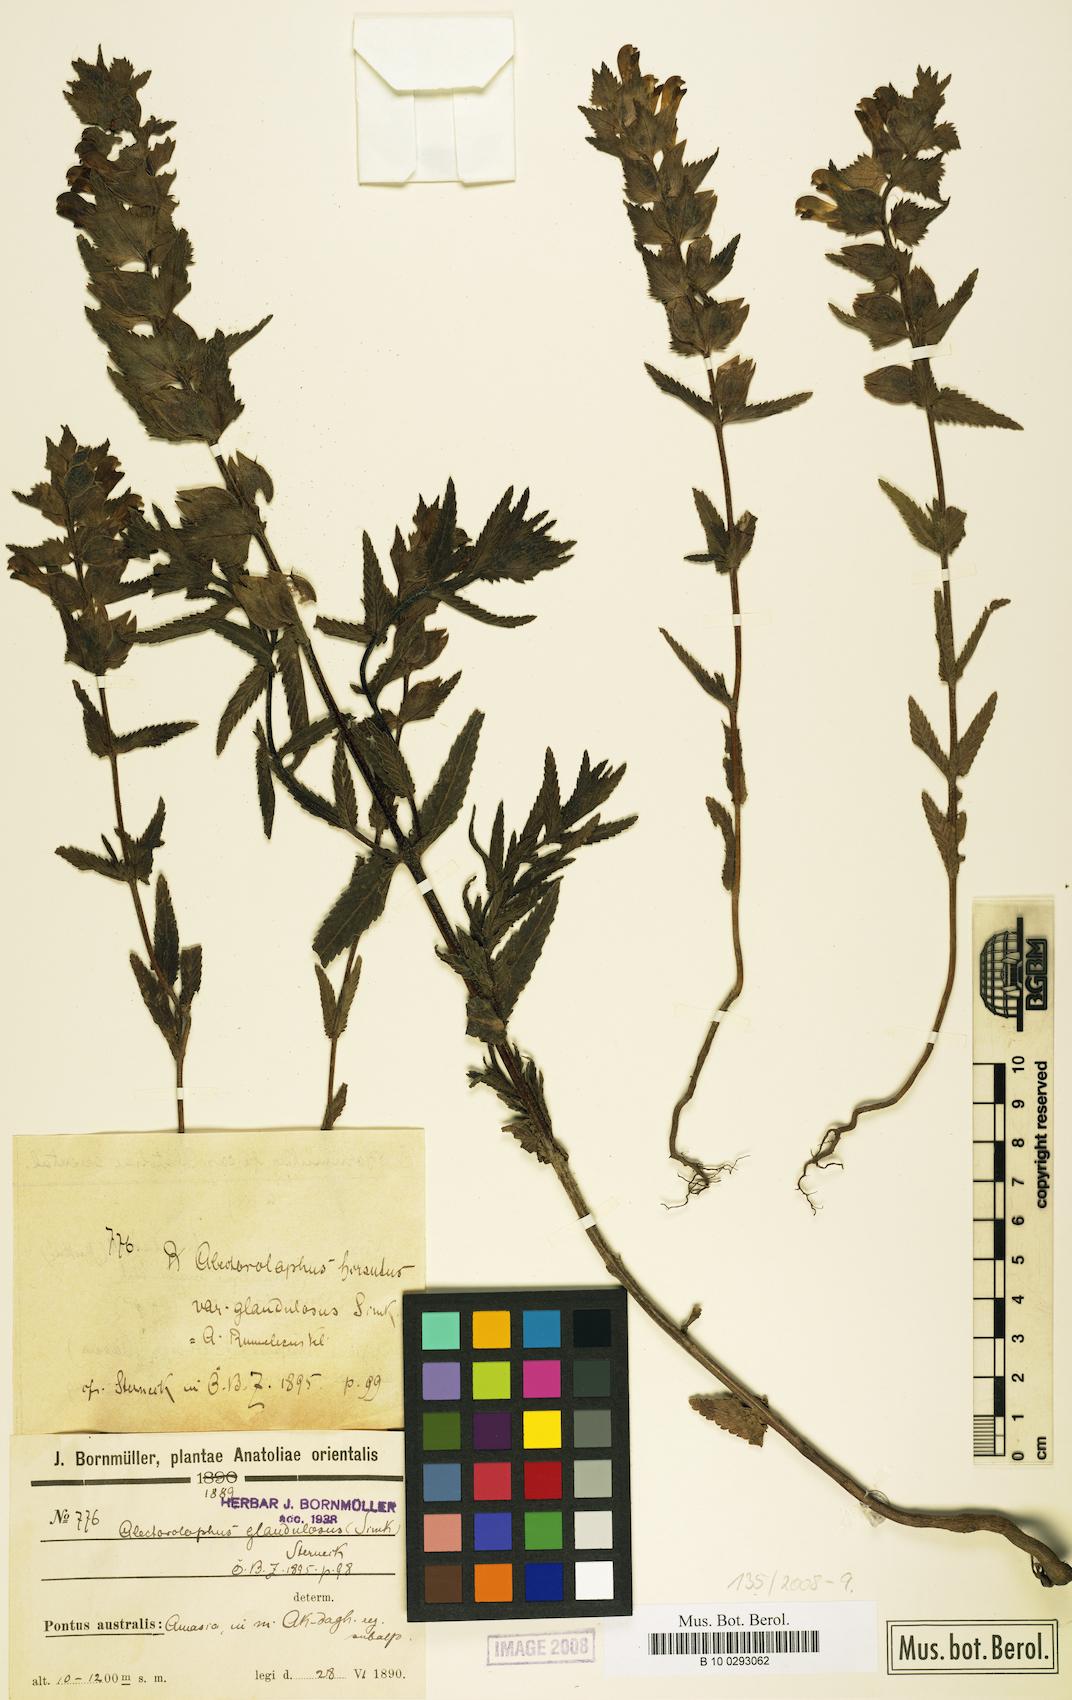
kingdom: Plantae
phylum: Tracheophyta
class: Magnoliopsida
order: Lamiales
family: Orobanchaceae
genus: Rhinanthus
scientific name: Rhinanthus alectorolophus
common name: Greater yellow-rattle
